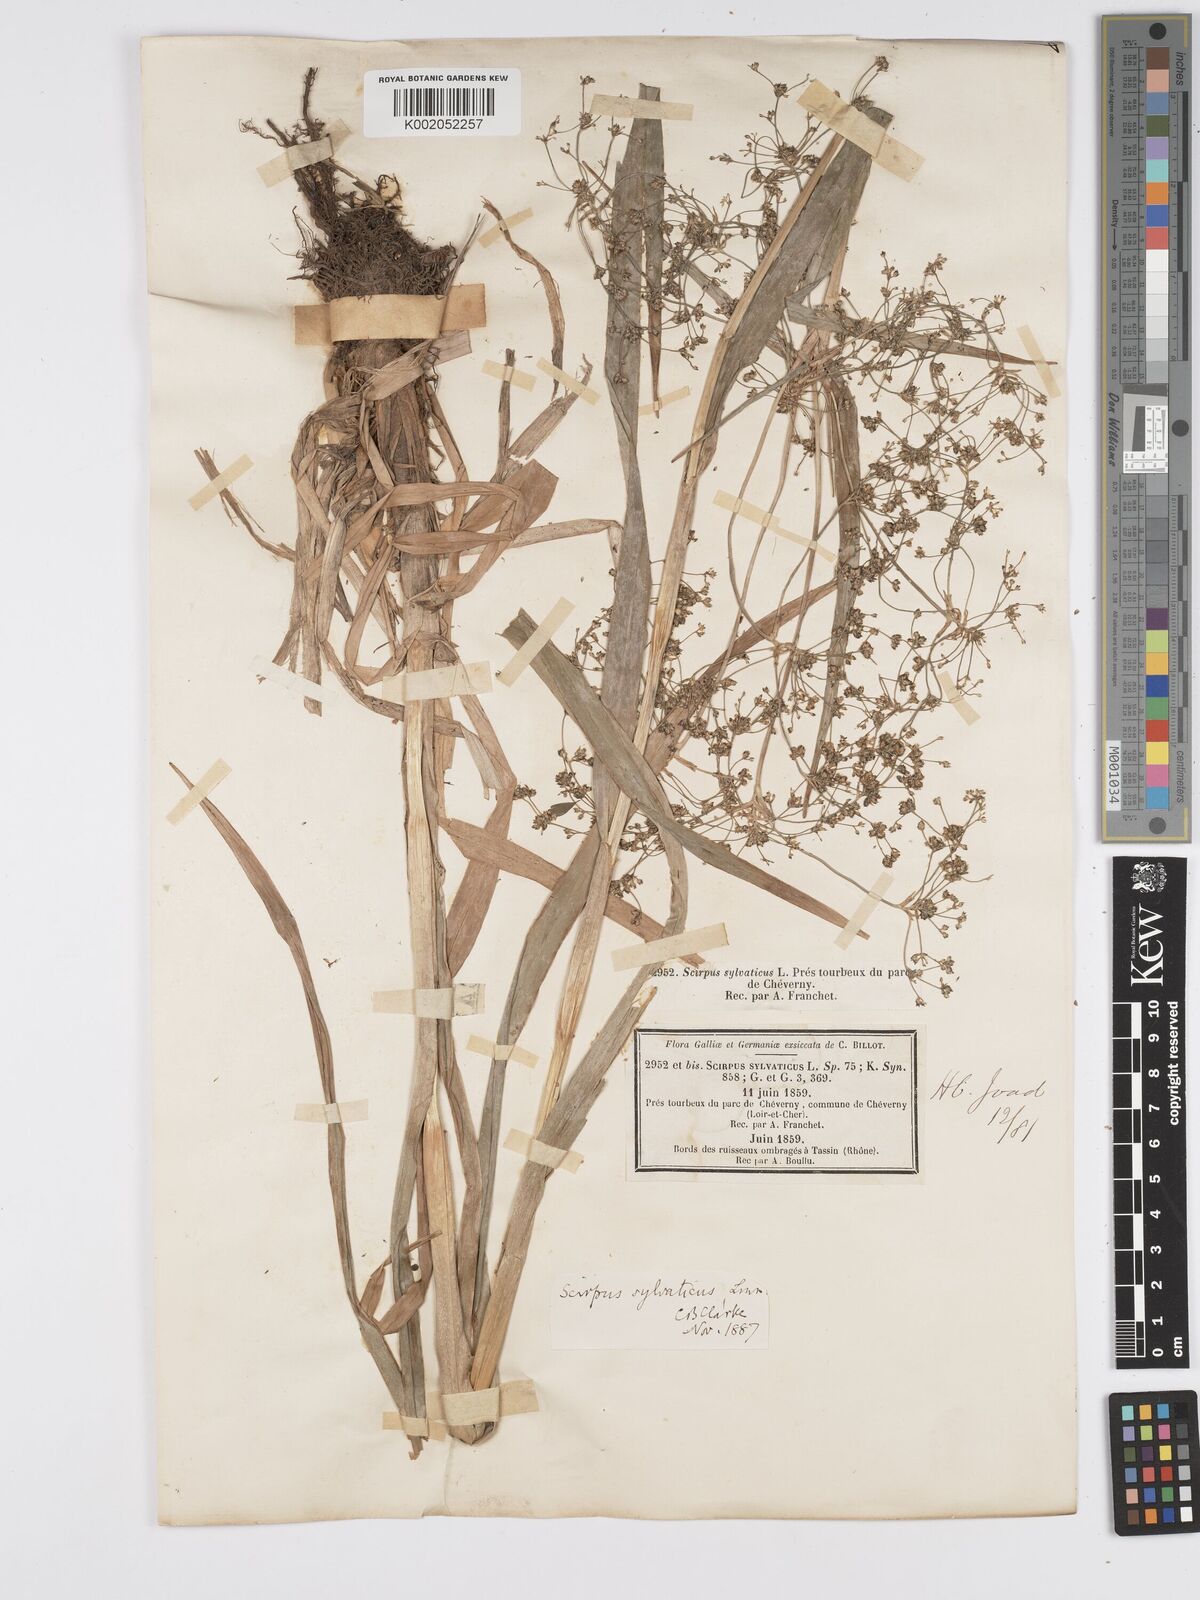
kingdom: Plantae
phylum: Tracheophyta
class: Liliopsida
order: Poales
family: Cyperaceae
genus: Scirpus
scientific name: Scirpus sylvaticus
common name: Wood club-rush
